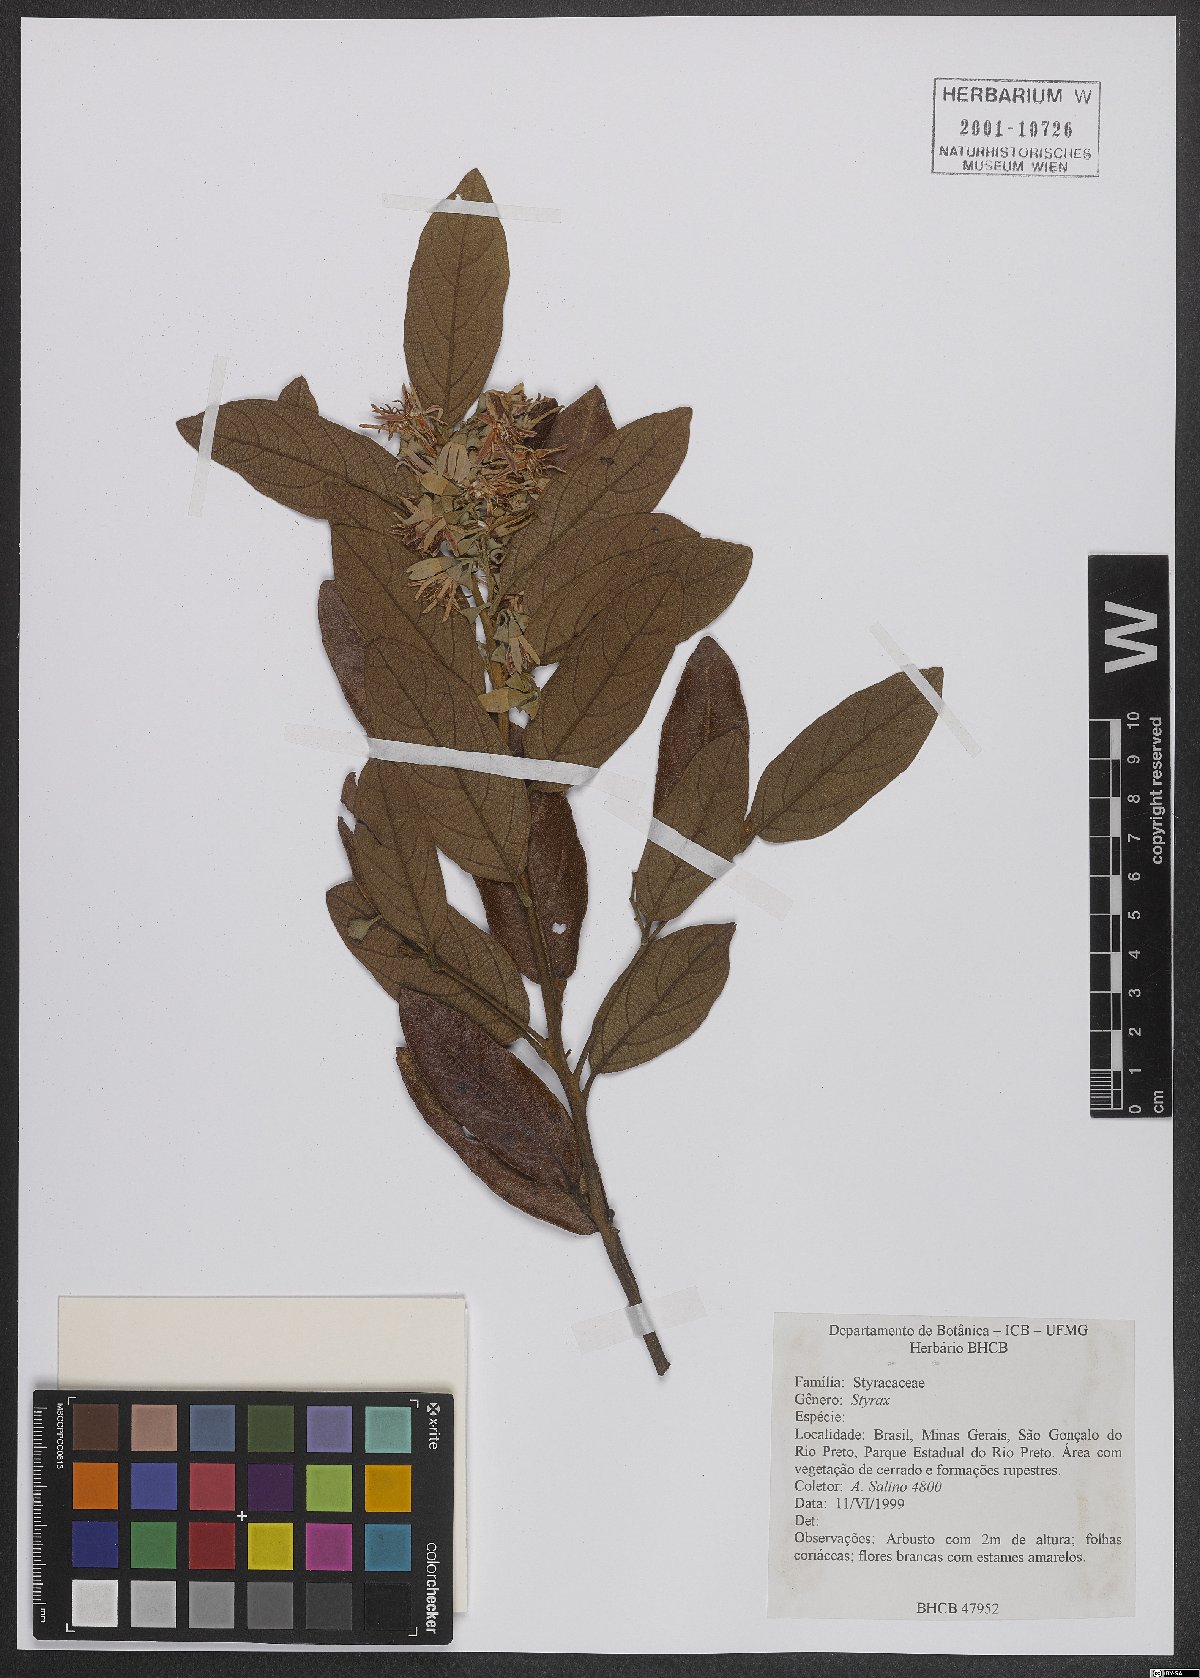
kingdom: Plantae
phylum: Tracheophyta
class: Magnoliopsida
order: Ericales
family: Styracaceae
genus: Styrax
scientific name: Styrax
